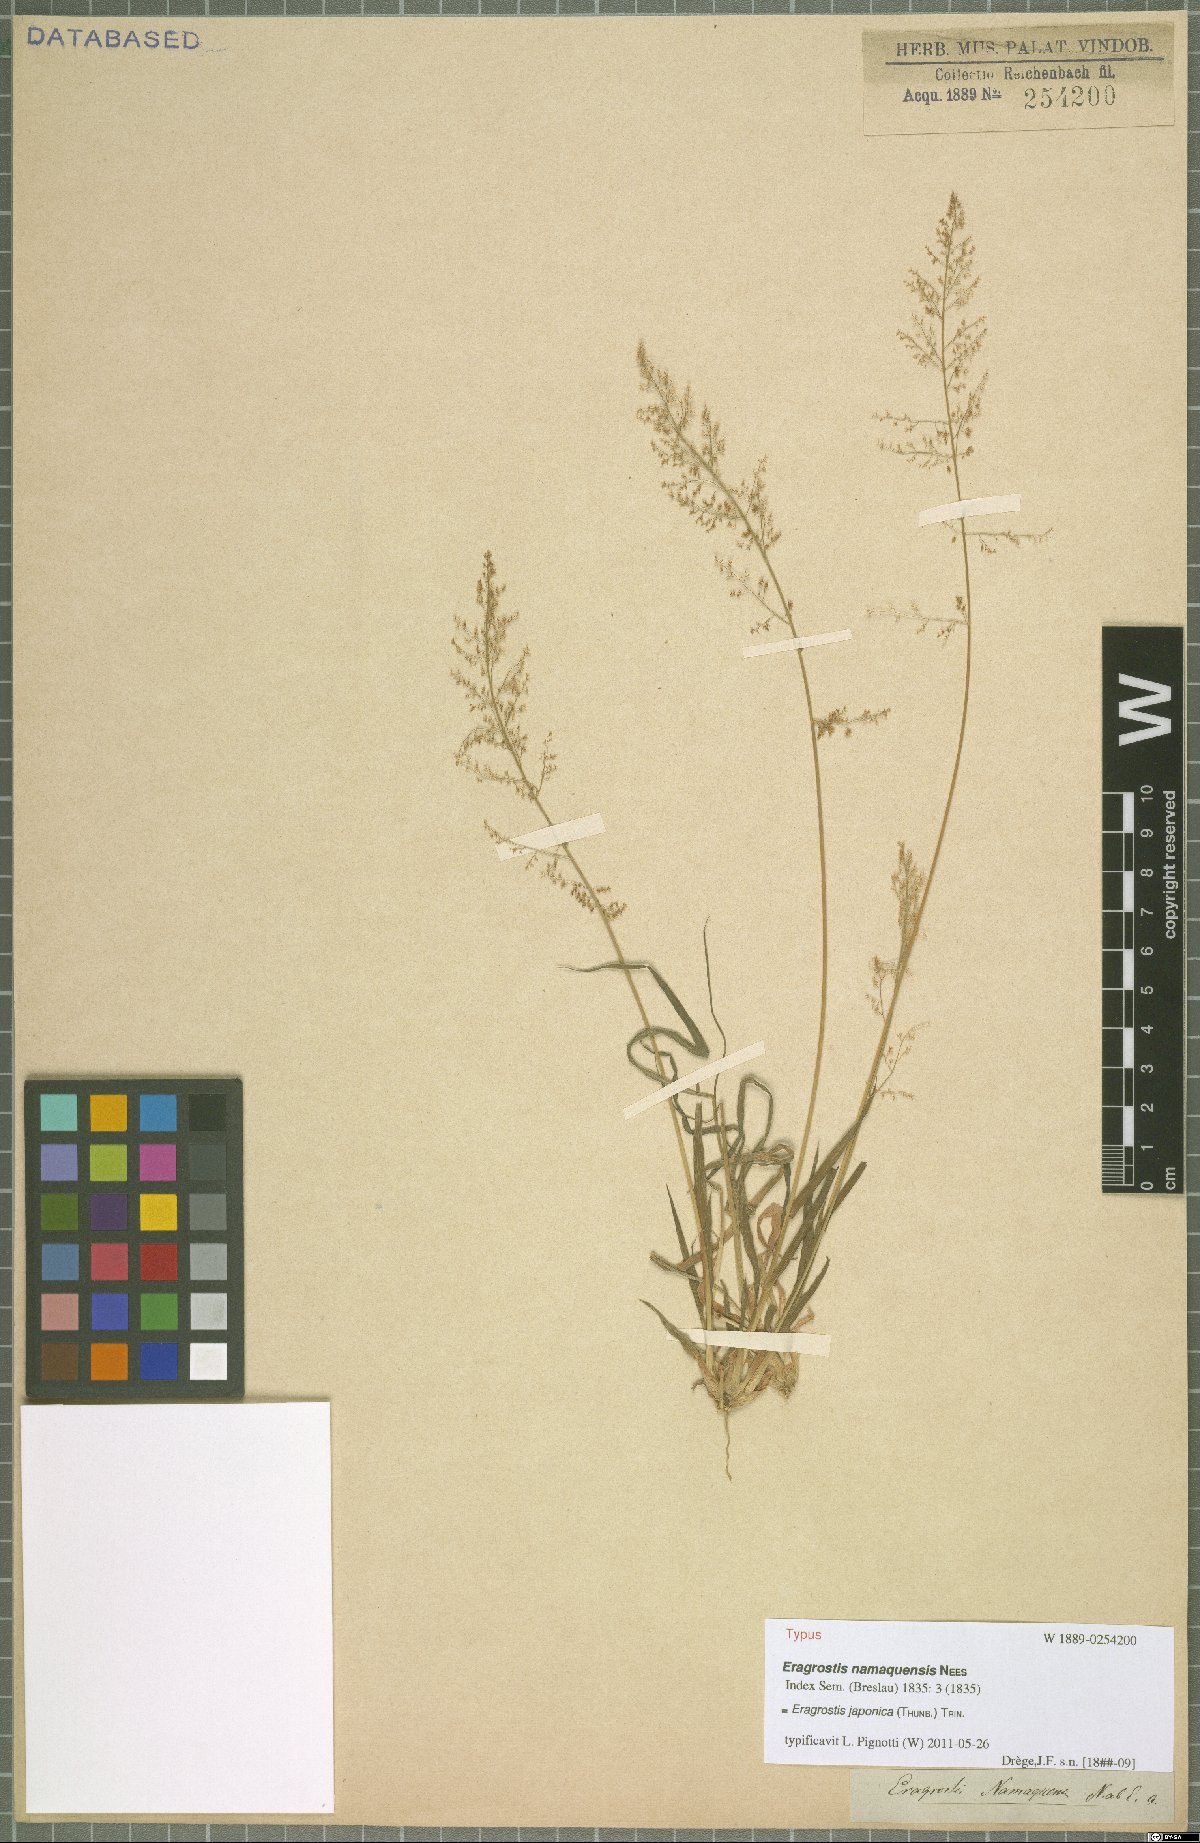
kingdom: Plantae
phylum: Tracheophyta
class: Liliopsida
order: Poales
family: Poaceae
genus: Eragrostis
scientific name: Eragrostis japonica
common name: Pond lovegrass
